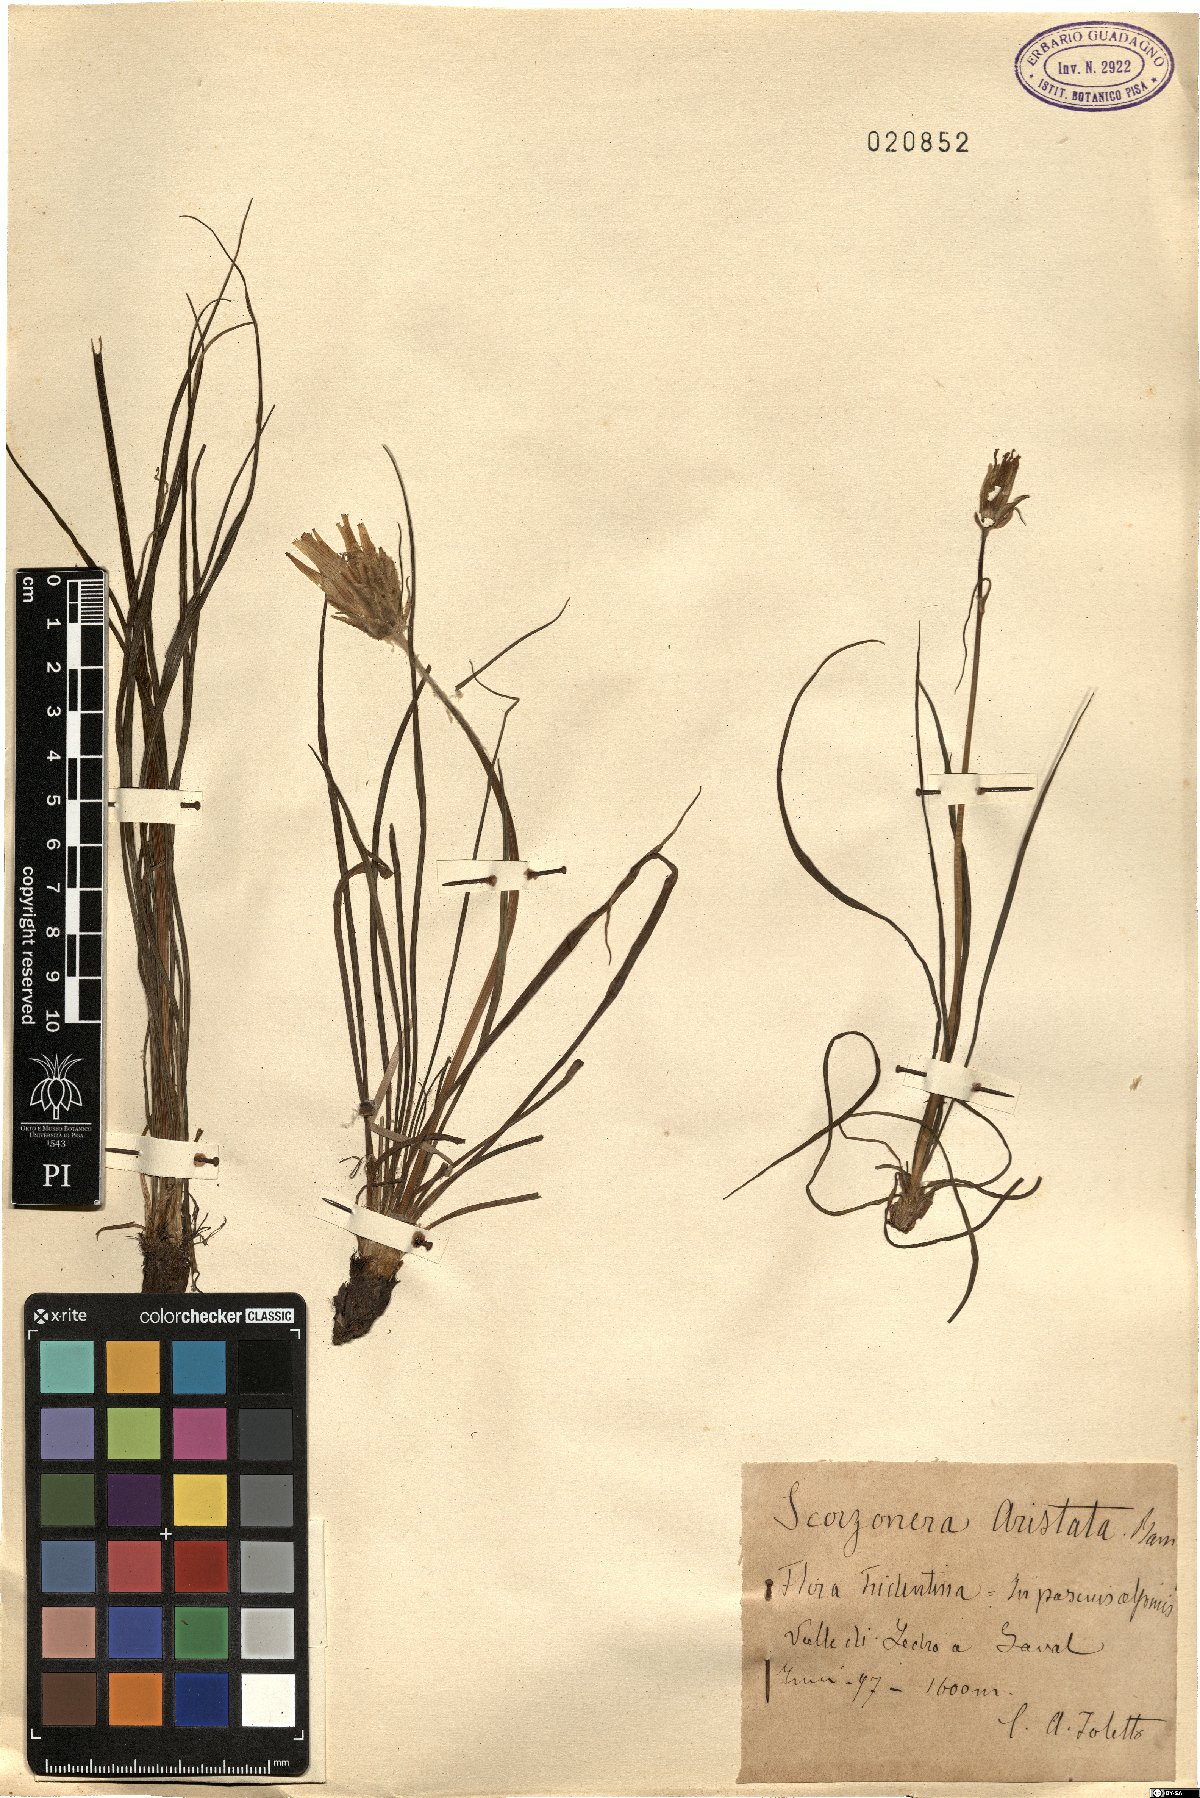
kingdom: Plantae
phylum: Tracheophyta
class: Magnoliopsida
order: Asterales
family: Asteraceae
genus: Scorzonera
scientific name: Scorzonera aristata
